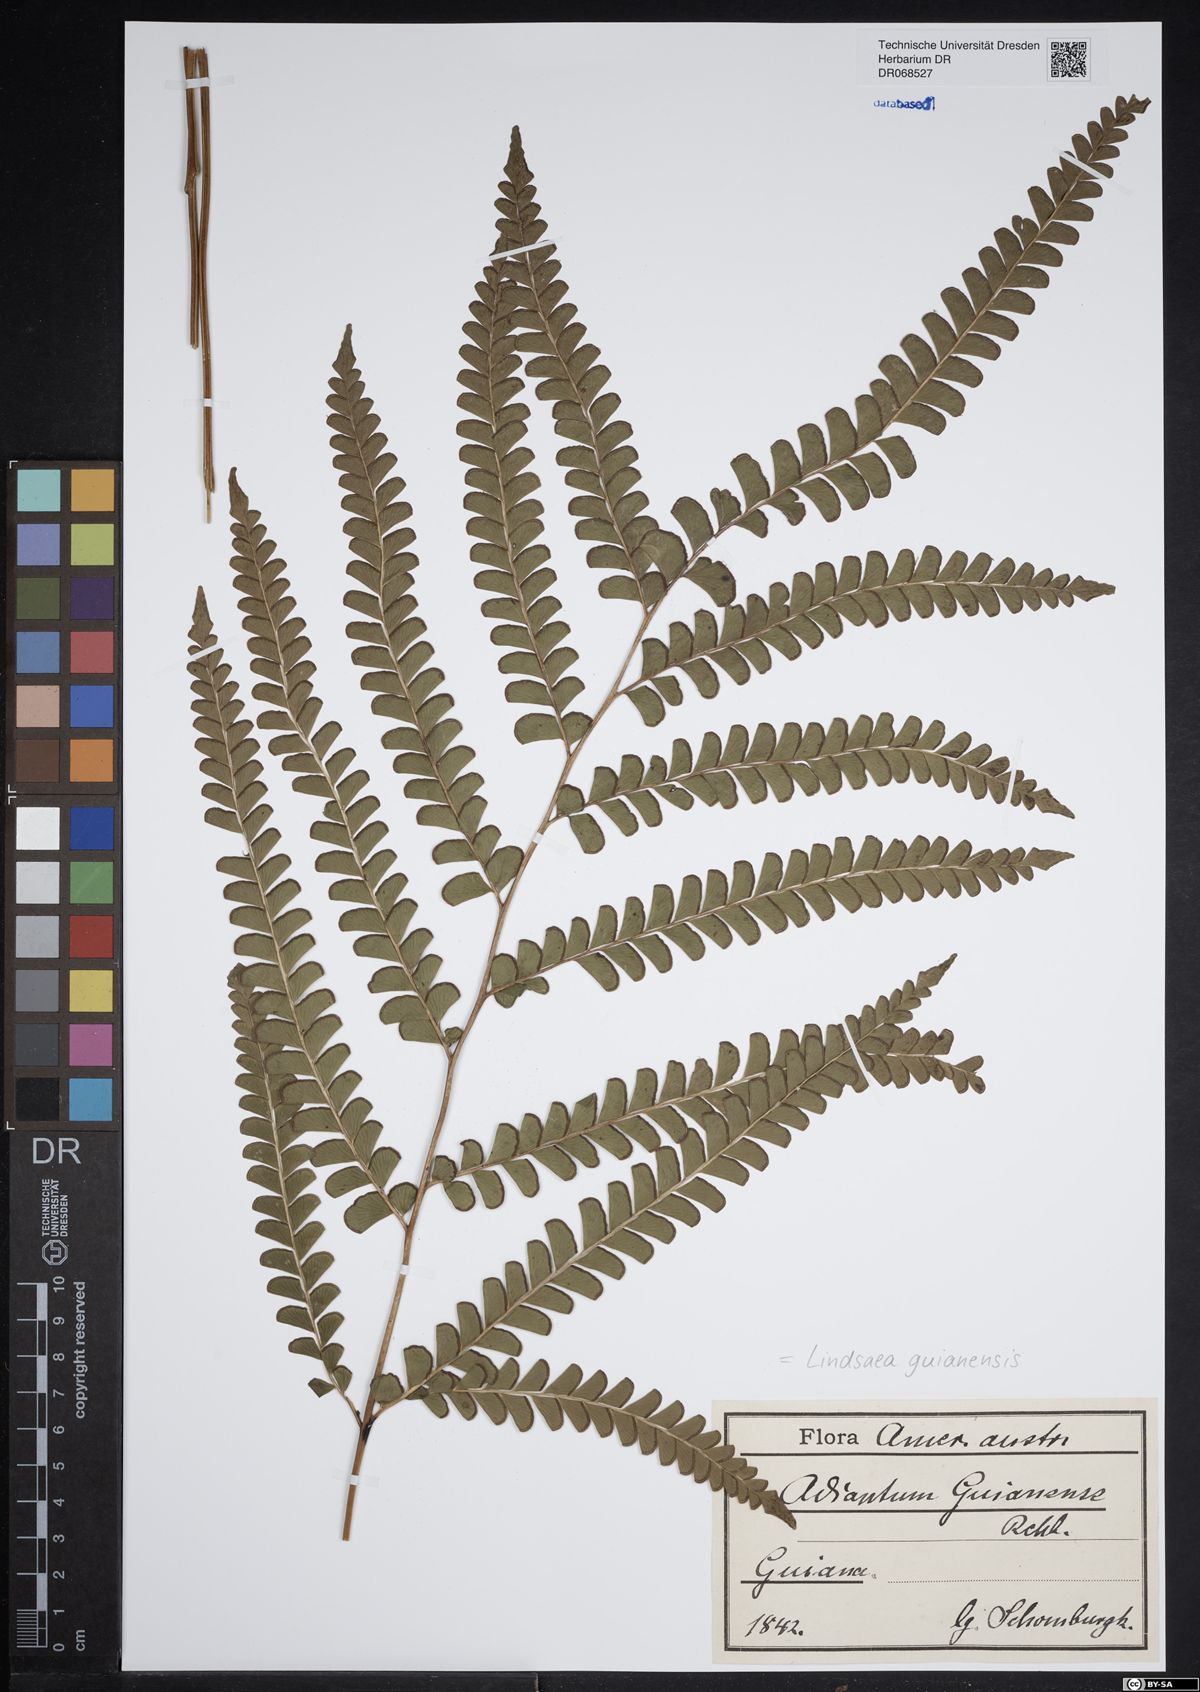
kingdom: Plantae
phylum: Tracheophyta
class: Polypodiopsida
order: Polypodiales
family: Lindsaeaceae
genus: Lindsaea
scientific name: Lindsaea guianensis
